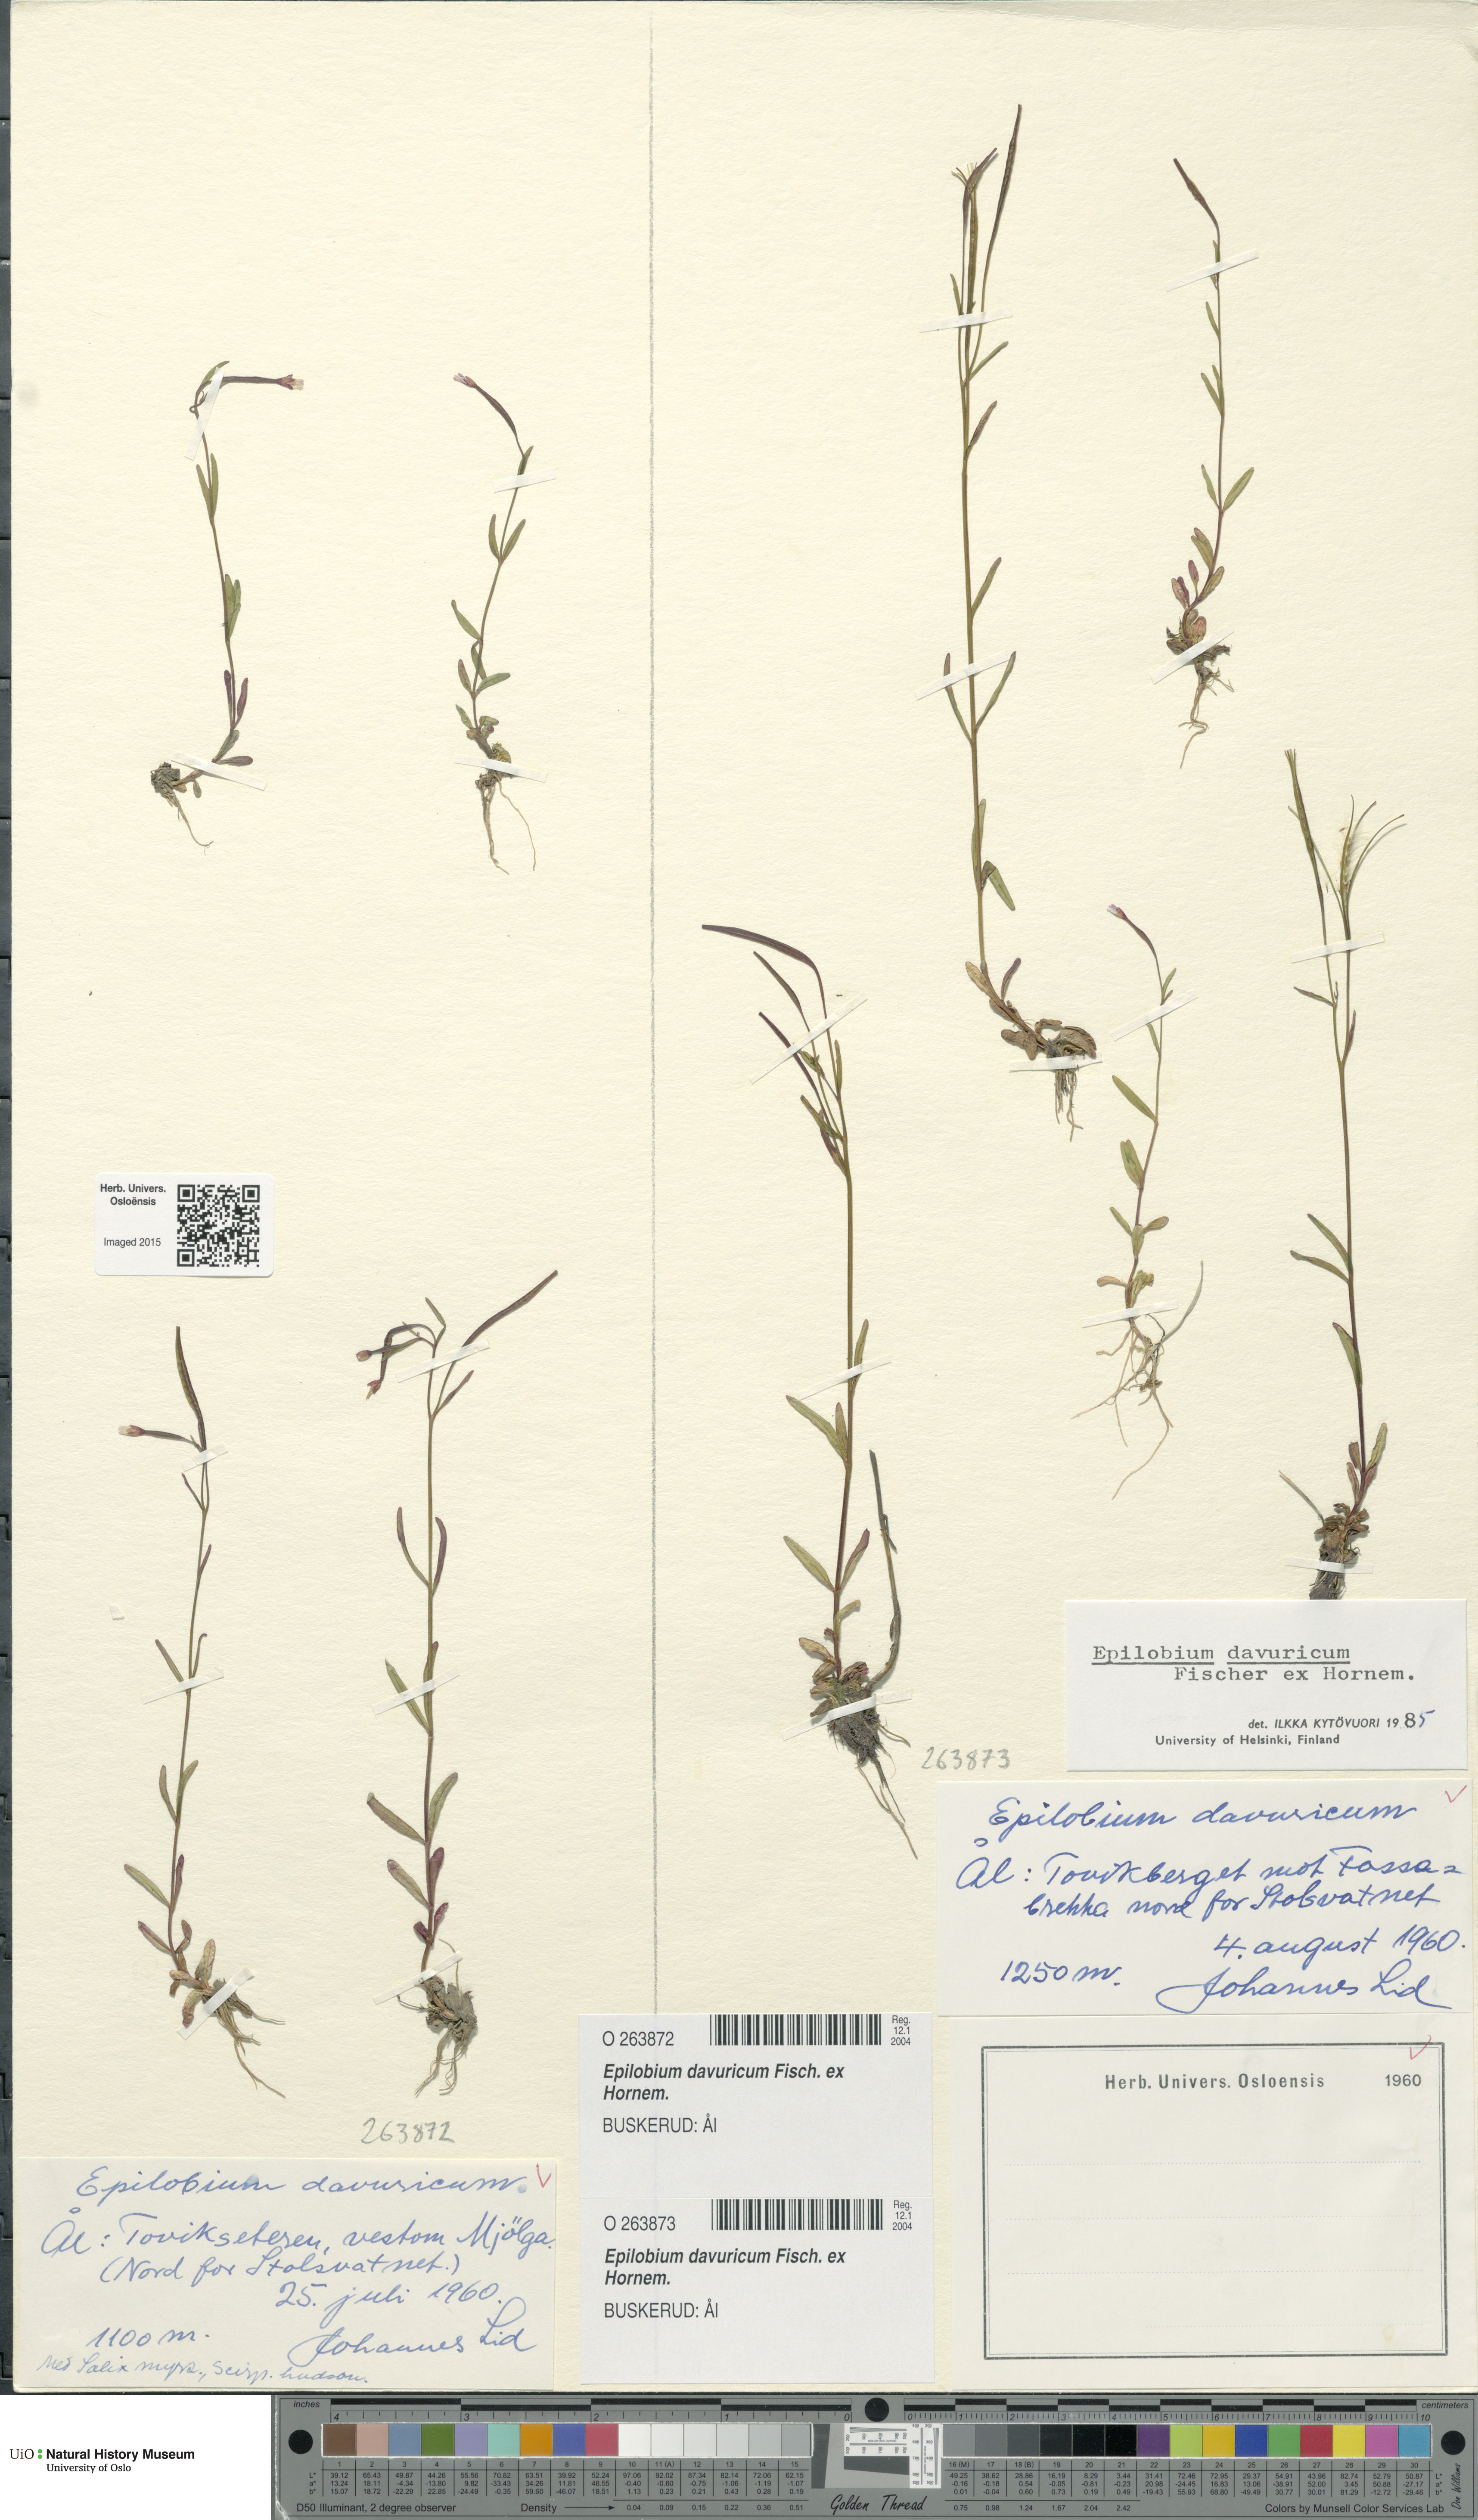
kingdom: Plantae
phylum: Tracheophyta
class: Magnoliopsida
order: Myrtales
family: Onagraceae
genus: Epilobium
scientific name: Epilobium davuricum
